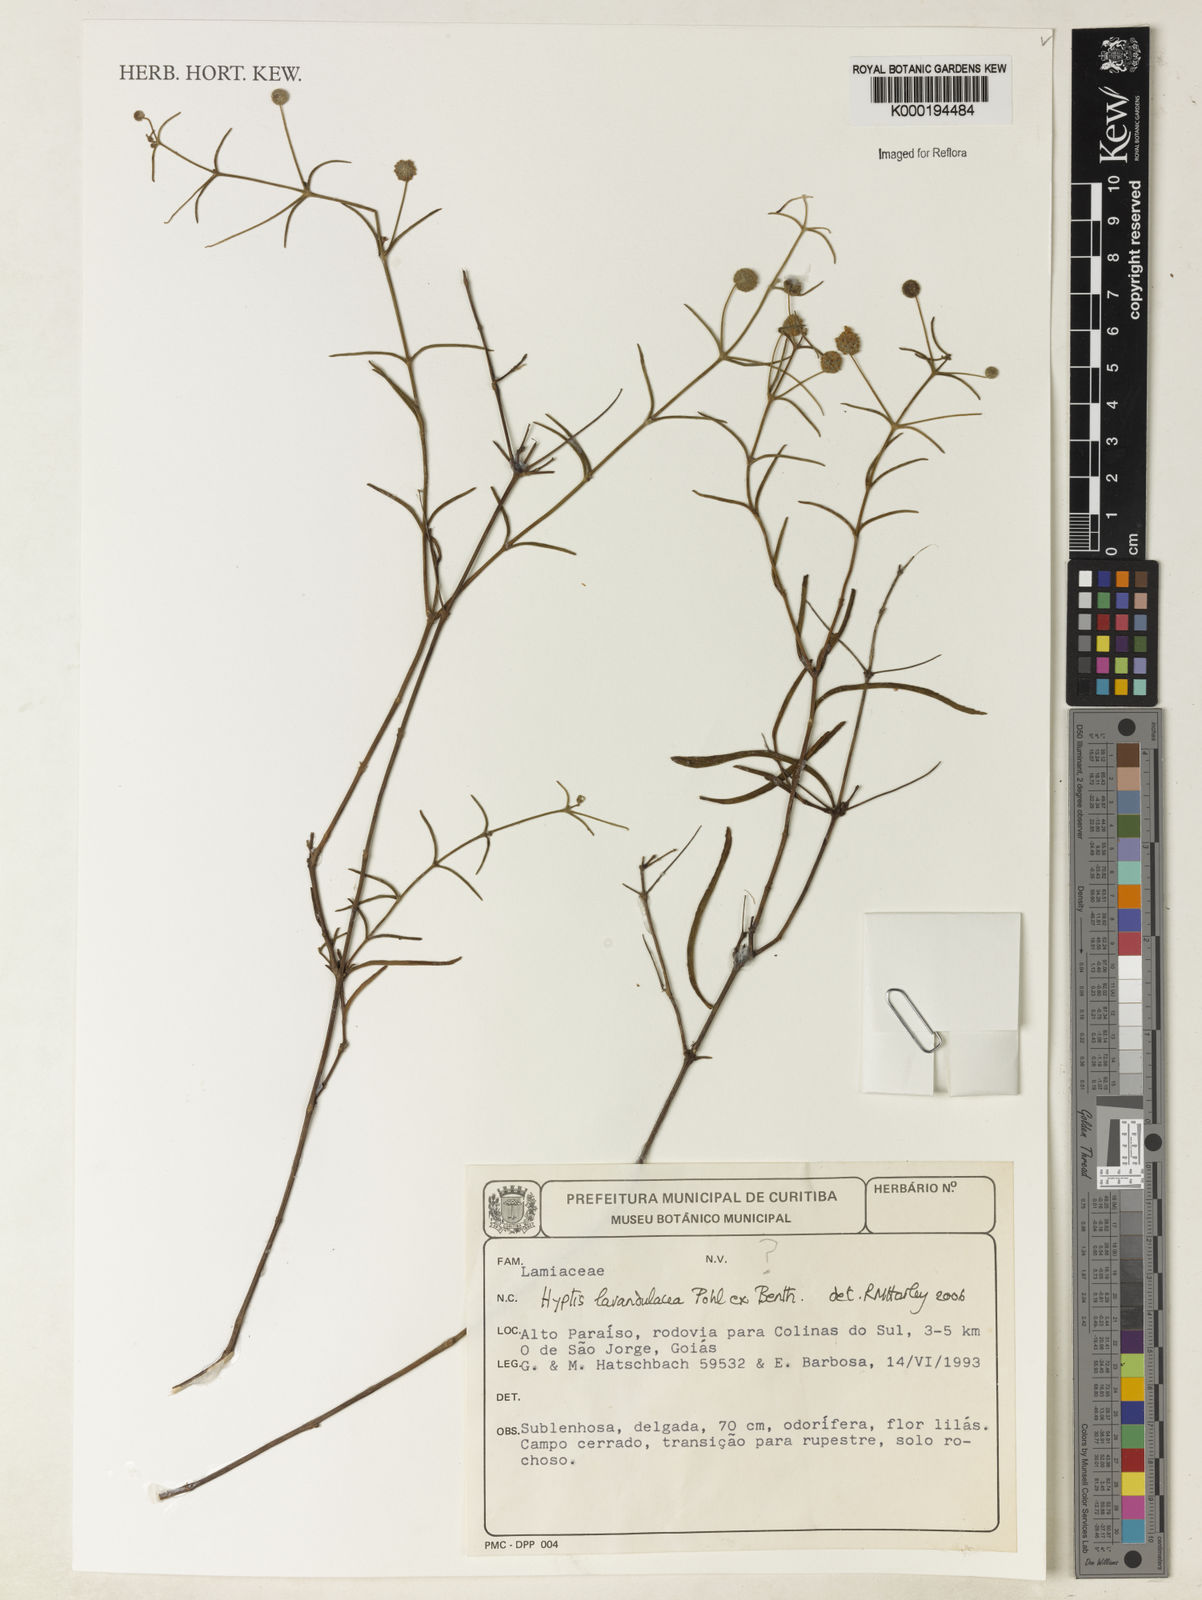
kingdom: Plantae
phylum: Tracheophyta
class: Magnoliopsida
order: Lamiales
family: Lamiaceae
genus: Hyptis
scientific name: Hyptis lavandulacea
